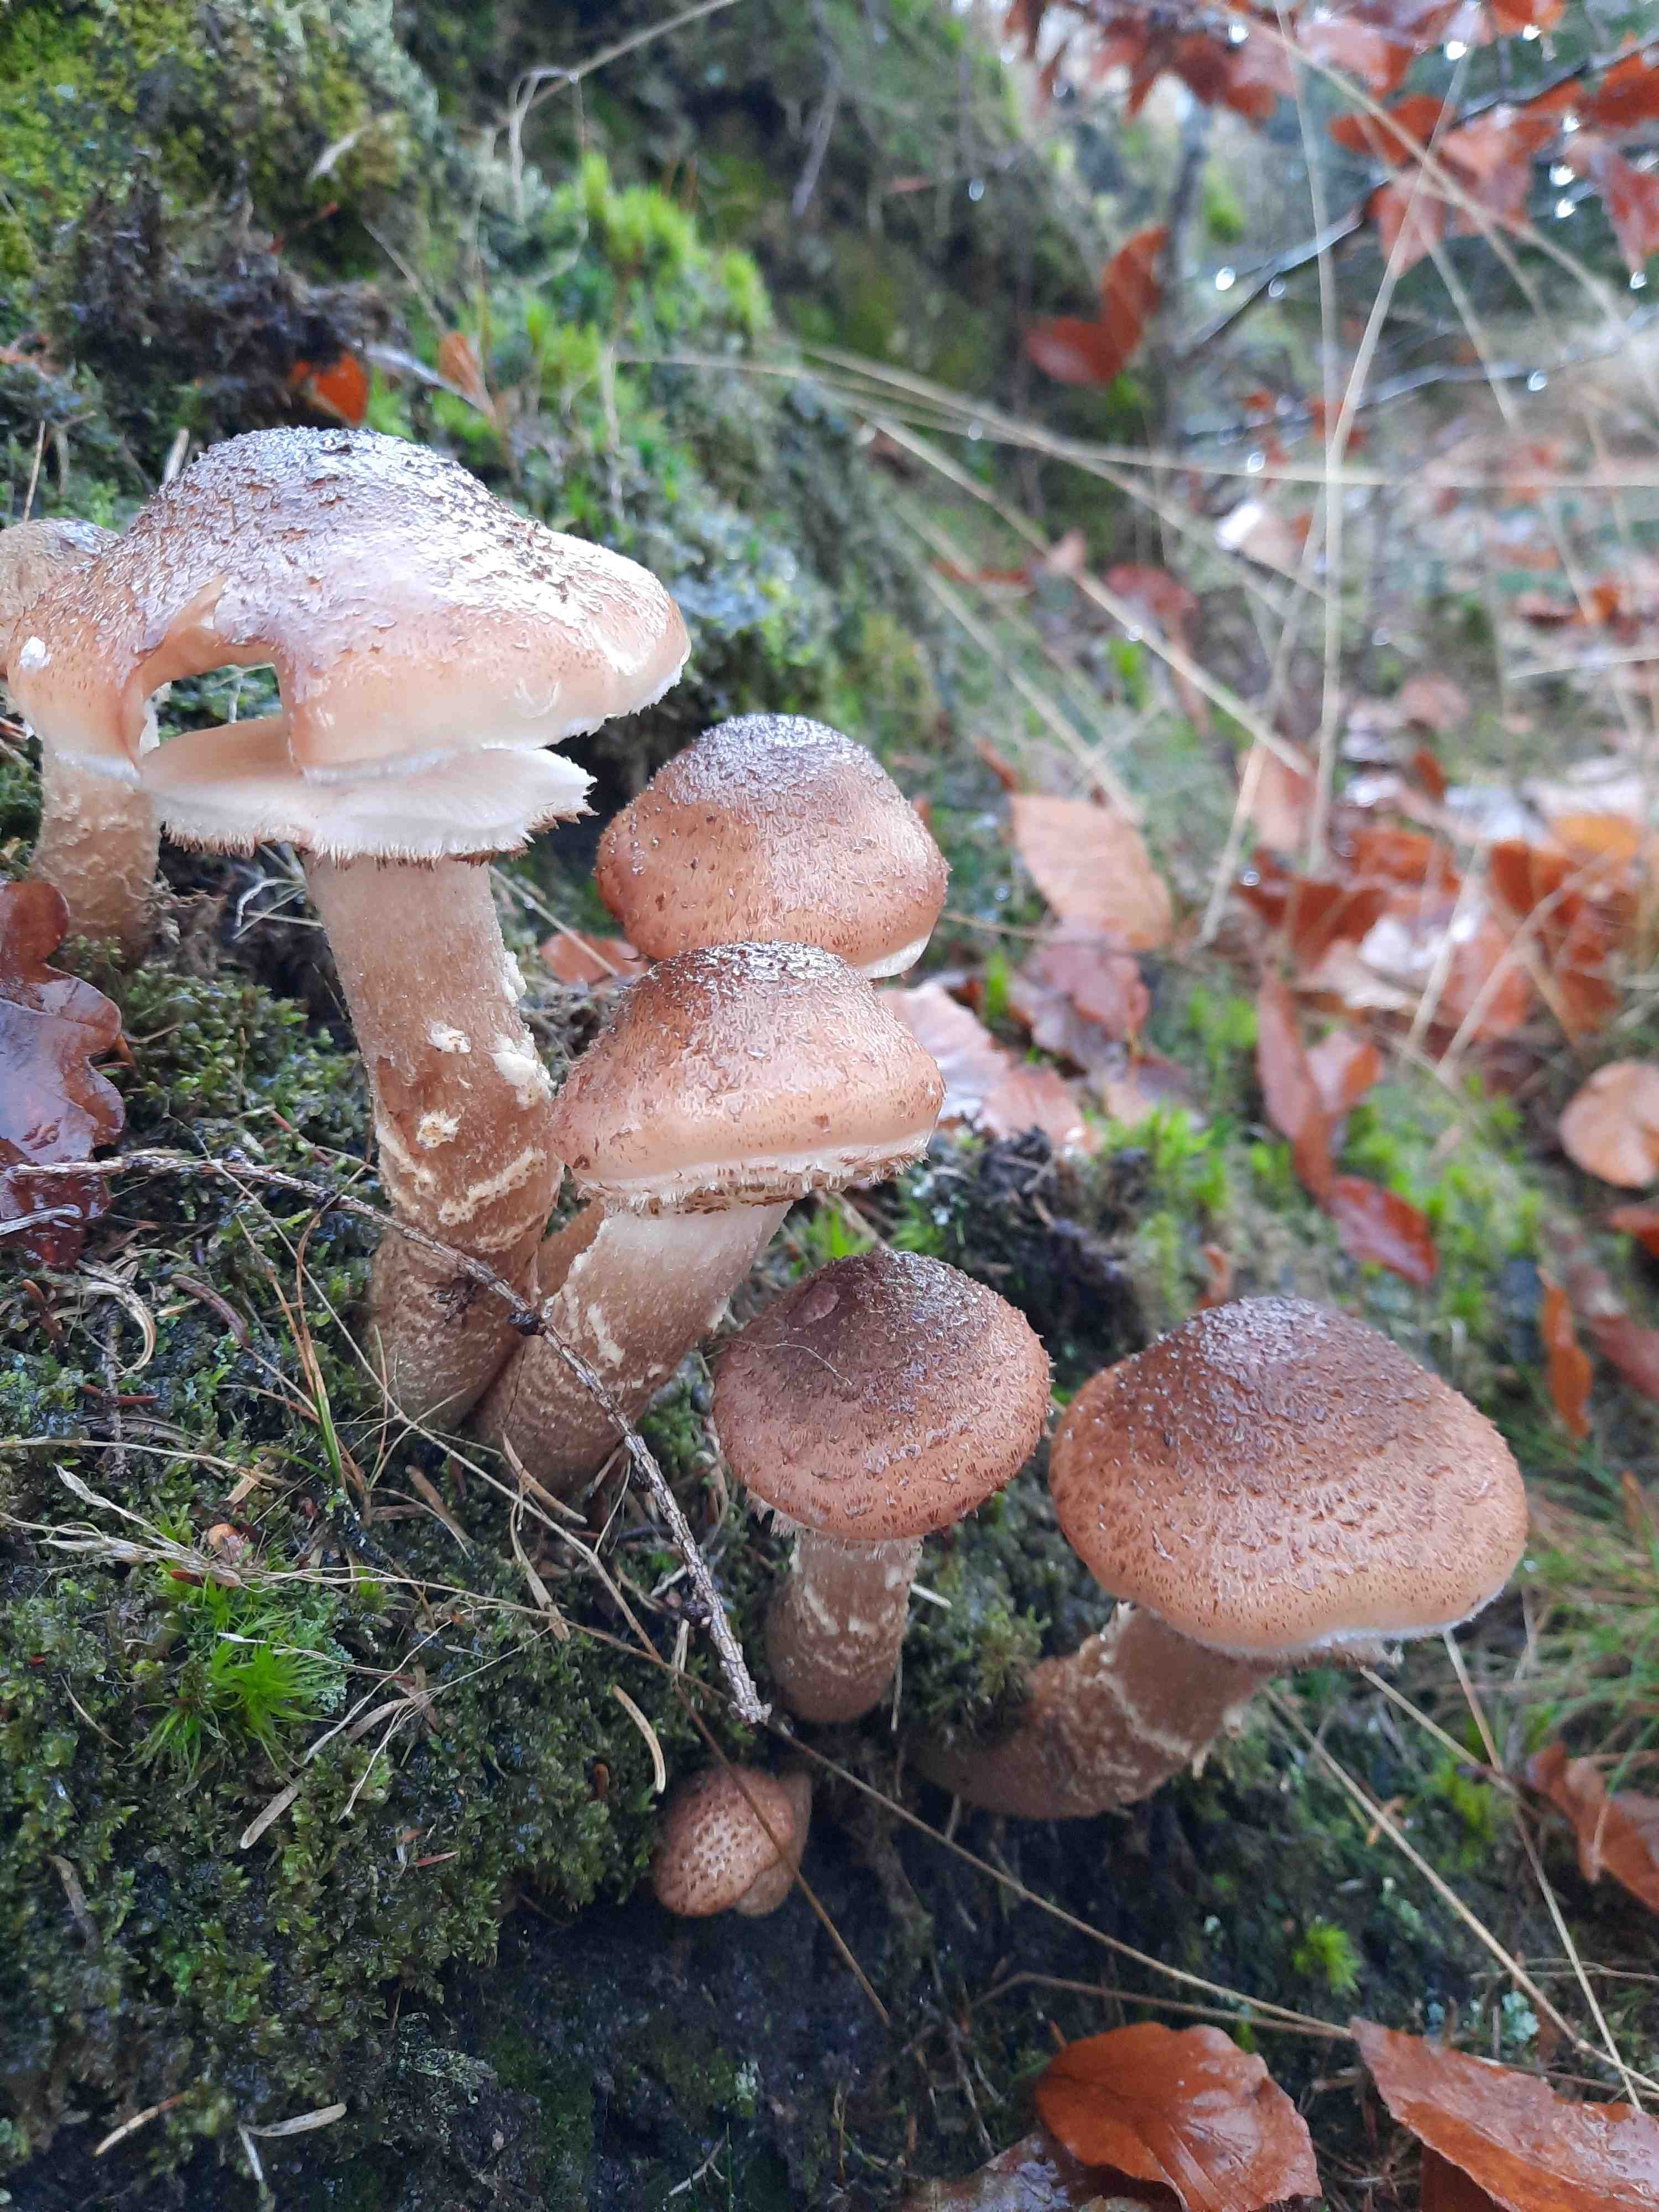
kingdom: Fungi
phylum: Basidiomycota
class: Agaricomycetes
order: Agaricales
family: Physalacriaceae
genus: Armillaria
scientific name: Armillaria lutea
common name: køllestokket honningsvamp
